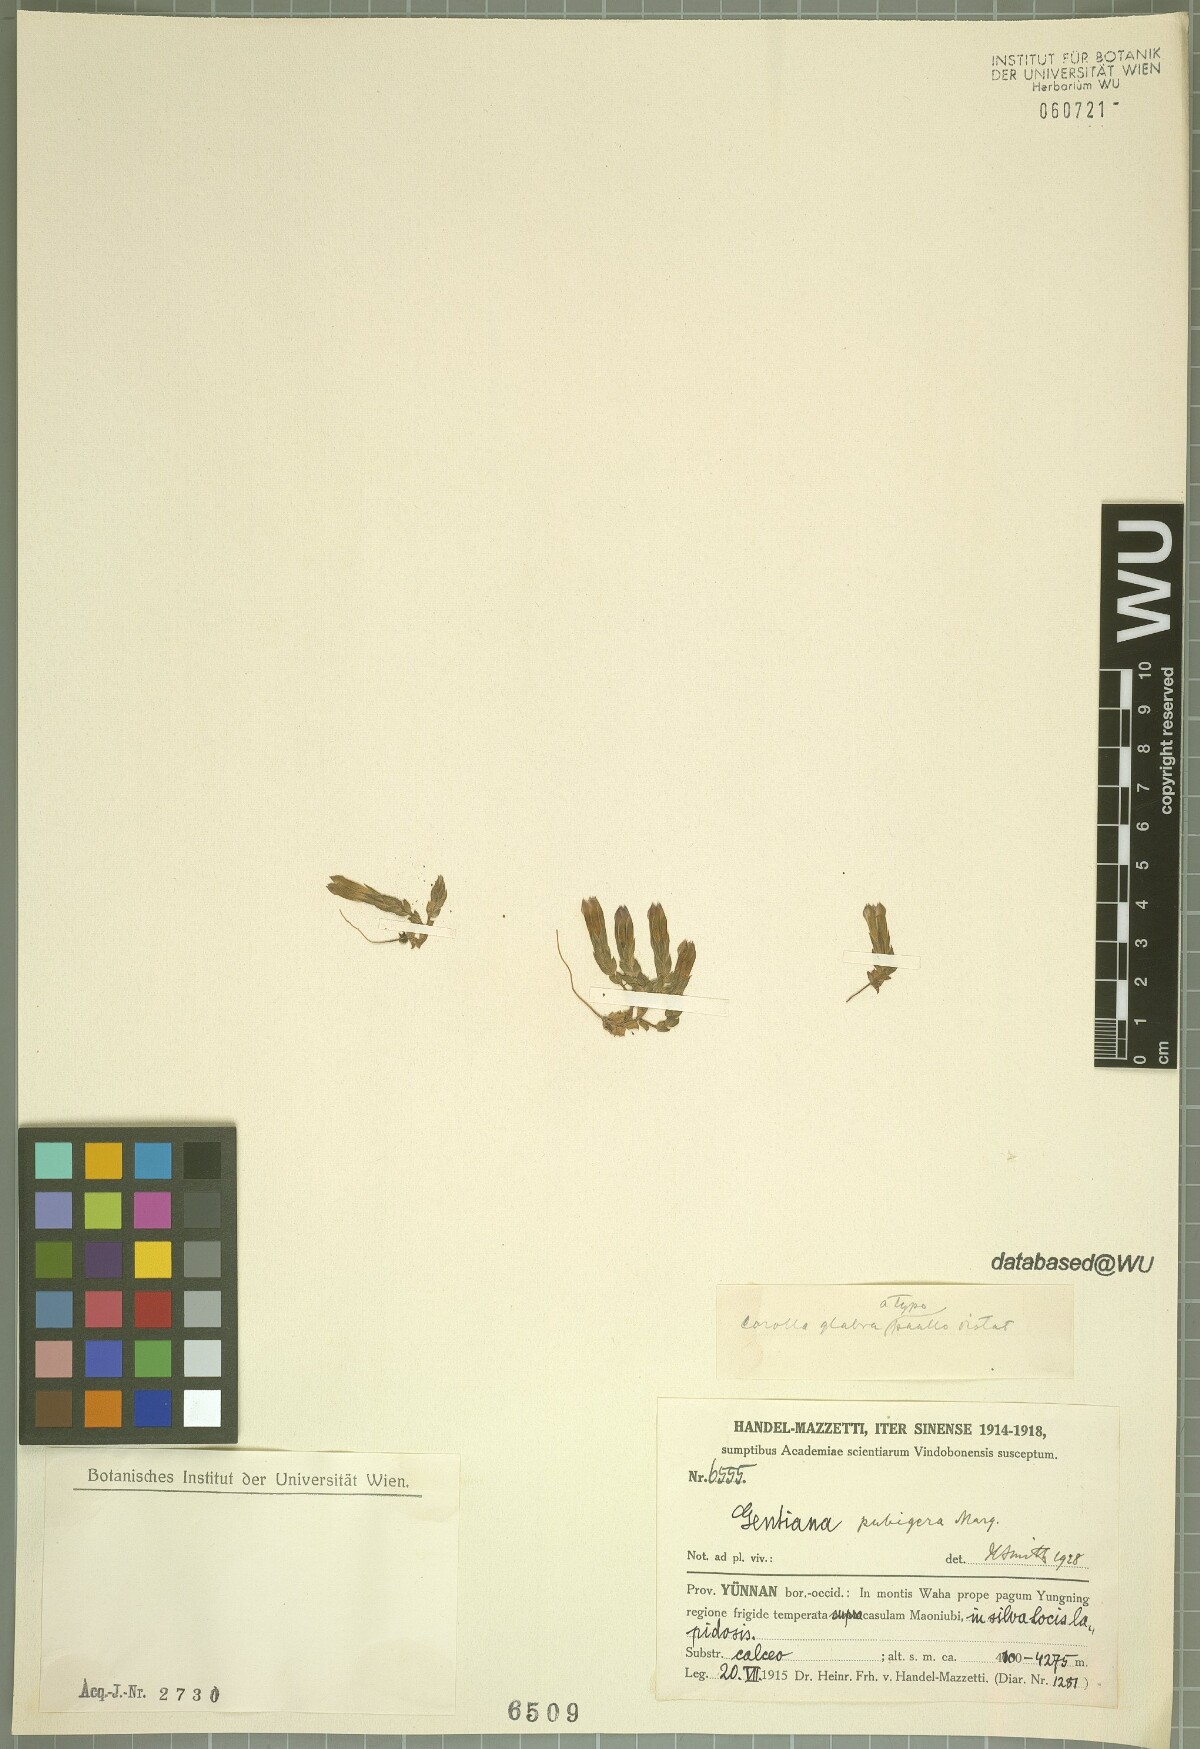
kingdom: Plantae
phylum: Tracheophyta
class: Magnoliopsida
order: Gentianales
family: Gentianaceae
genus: Gentiana
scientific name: Gentiana pubigera
